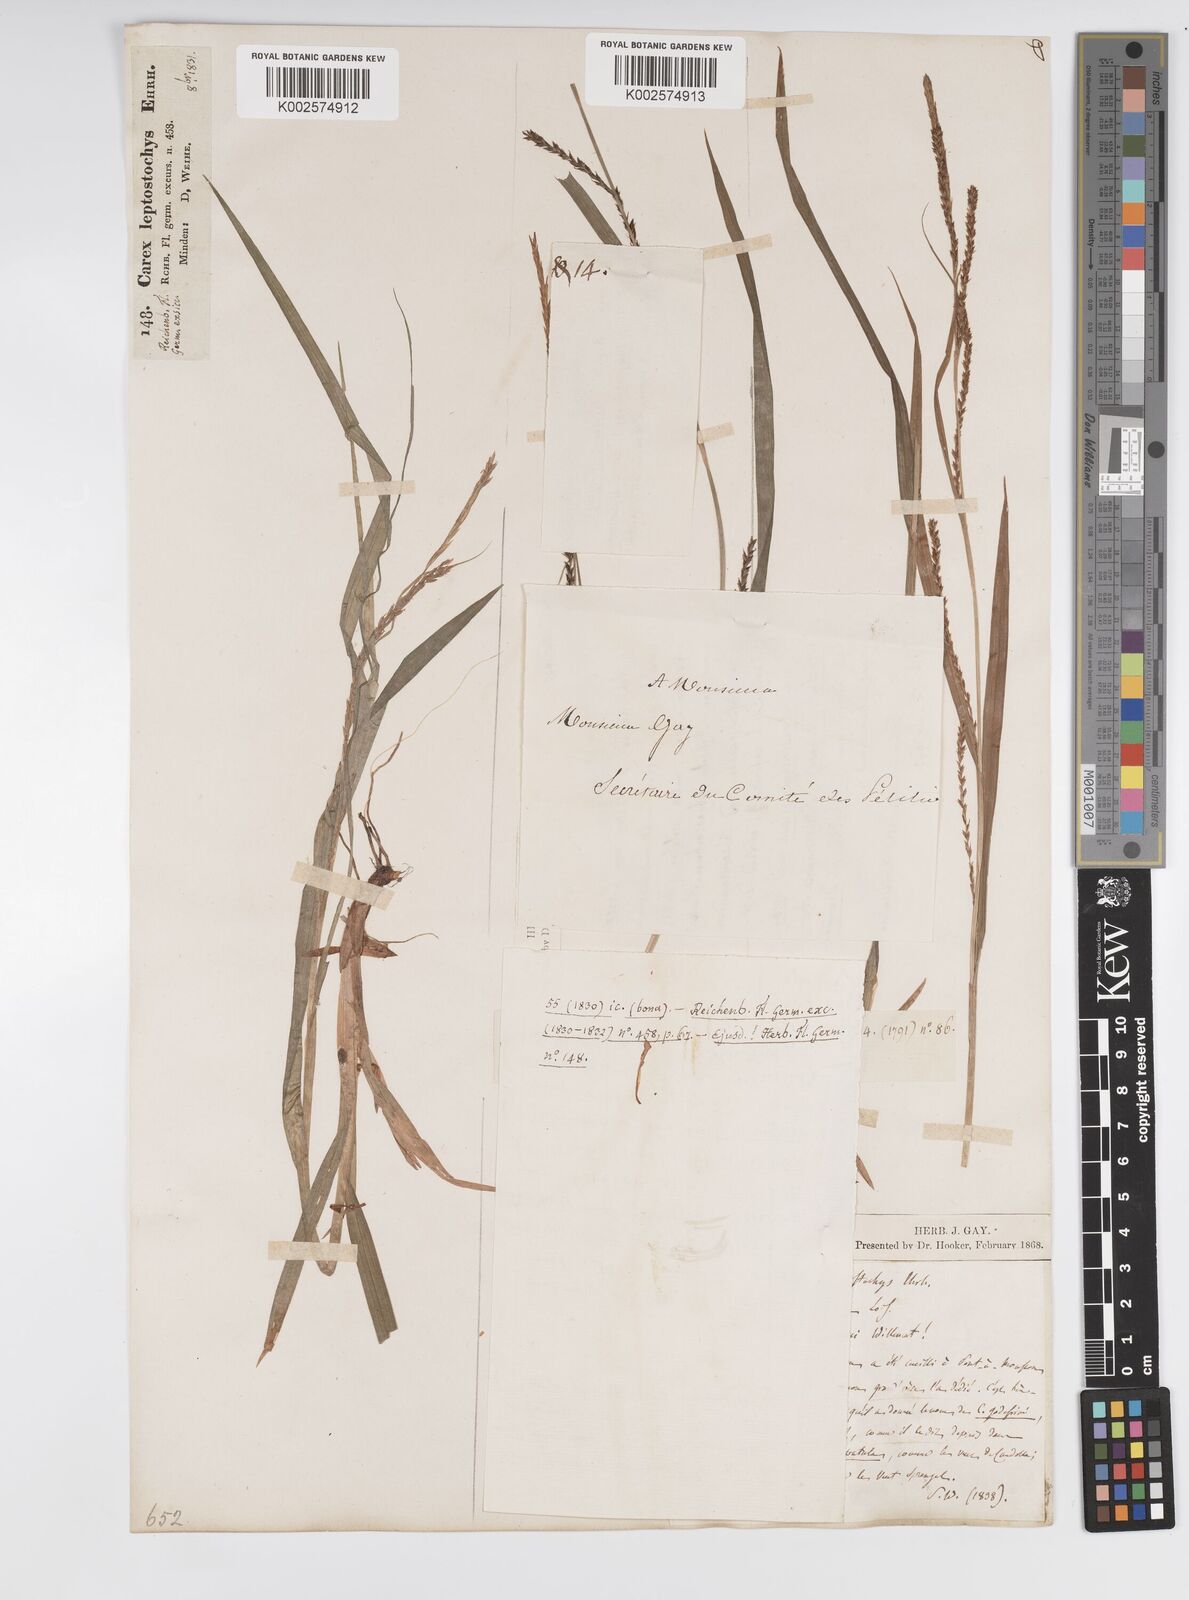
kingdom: Plantae
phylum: Tracheophyta
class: Liliopsida
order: Poales
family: Cyperaceae
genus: Carex
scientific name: Carex strigosa
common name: Thin-spiked wood-sedge
